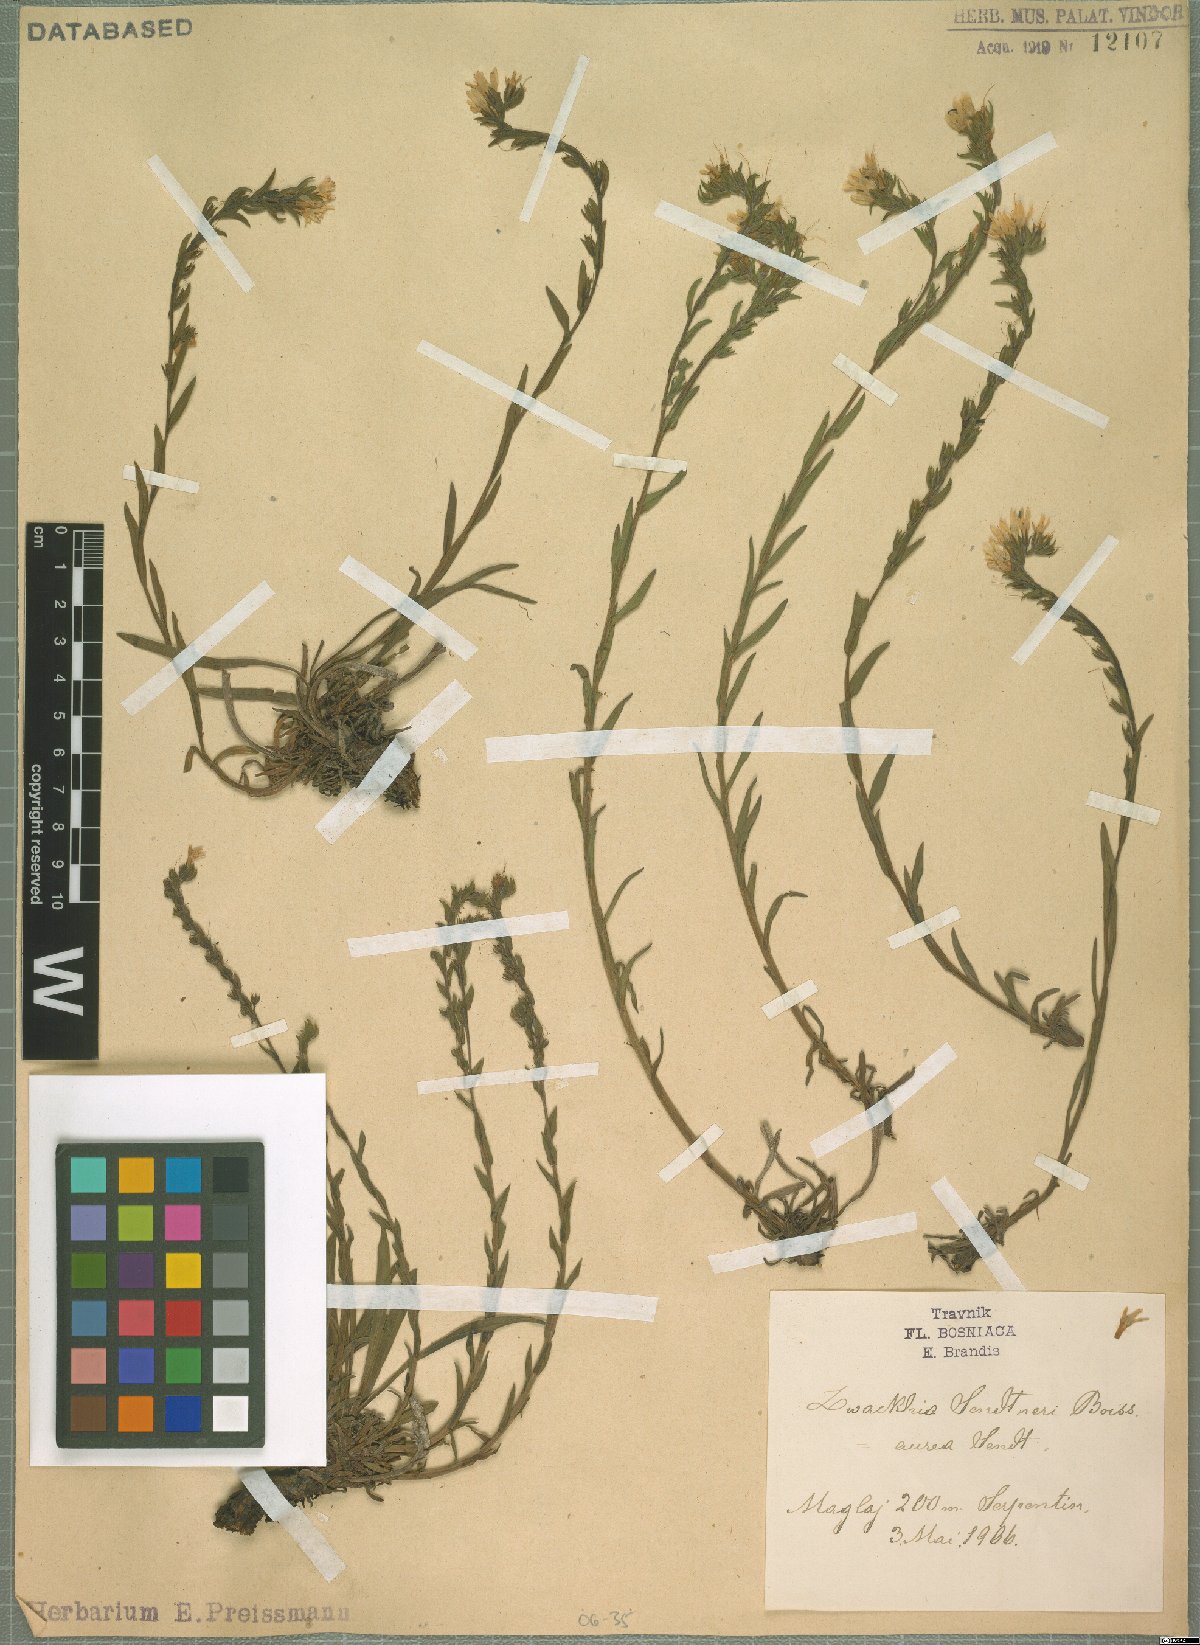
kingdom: Plantae
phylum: Tracheophyta
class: Magnoliopsida
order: Boraginales
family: Boraginaceae
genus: Halacsya
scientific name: Halacsya sendtneri
